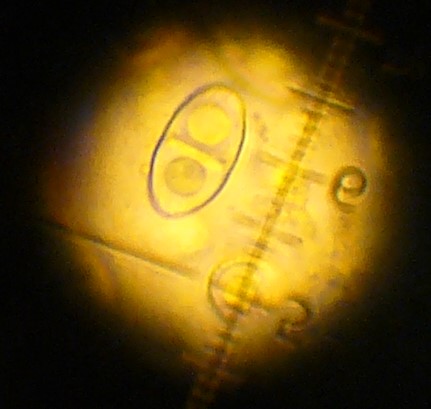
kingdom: Fungi
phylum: Ascomycota
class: Sordariomycetes
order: Hypocreales
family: Nectriaceae
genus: Hydropisphaera
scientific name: Hydropisphaera peziza
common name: skålformet gyldenkerne
